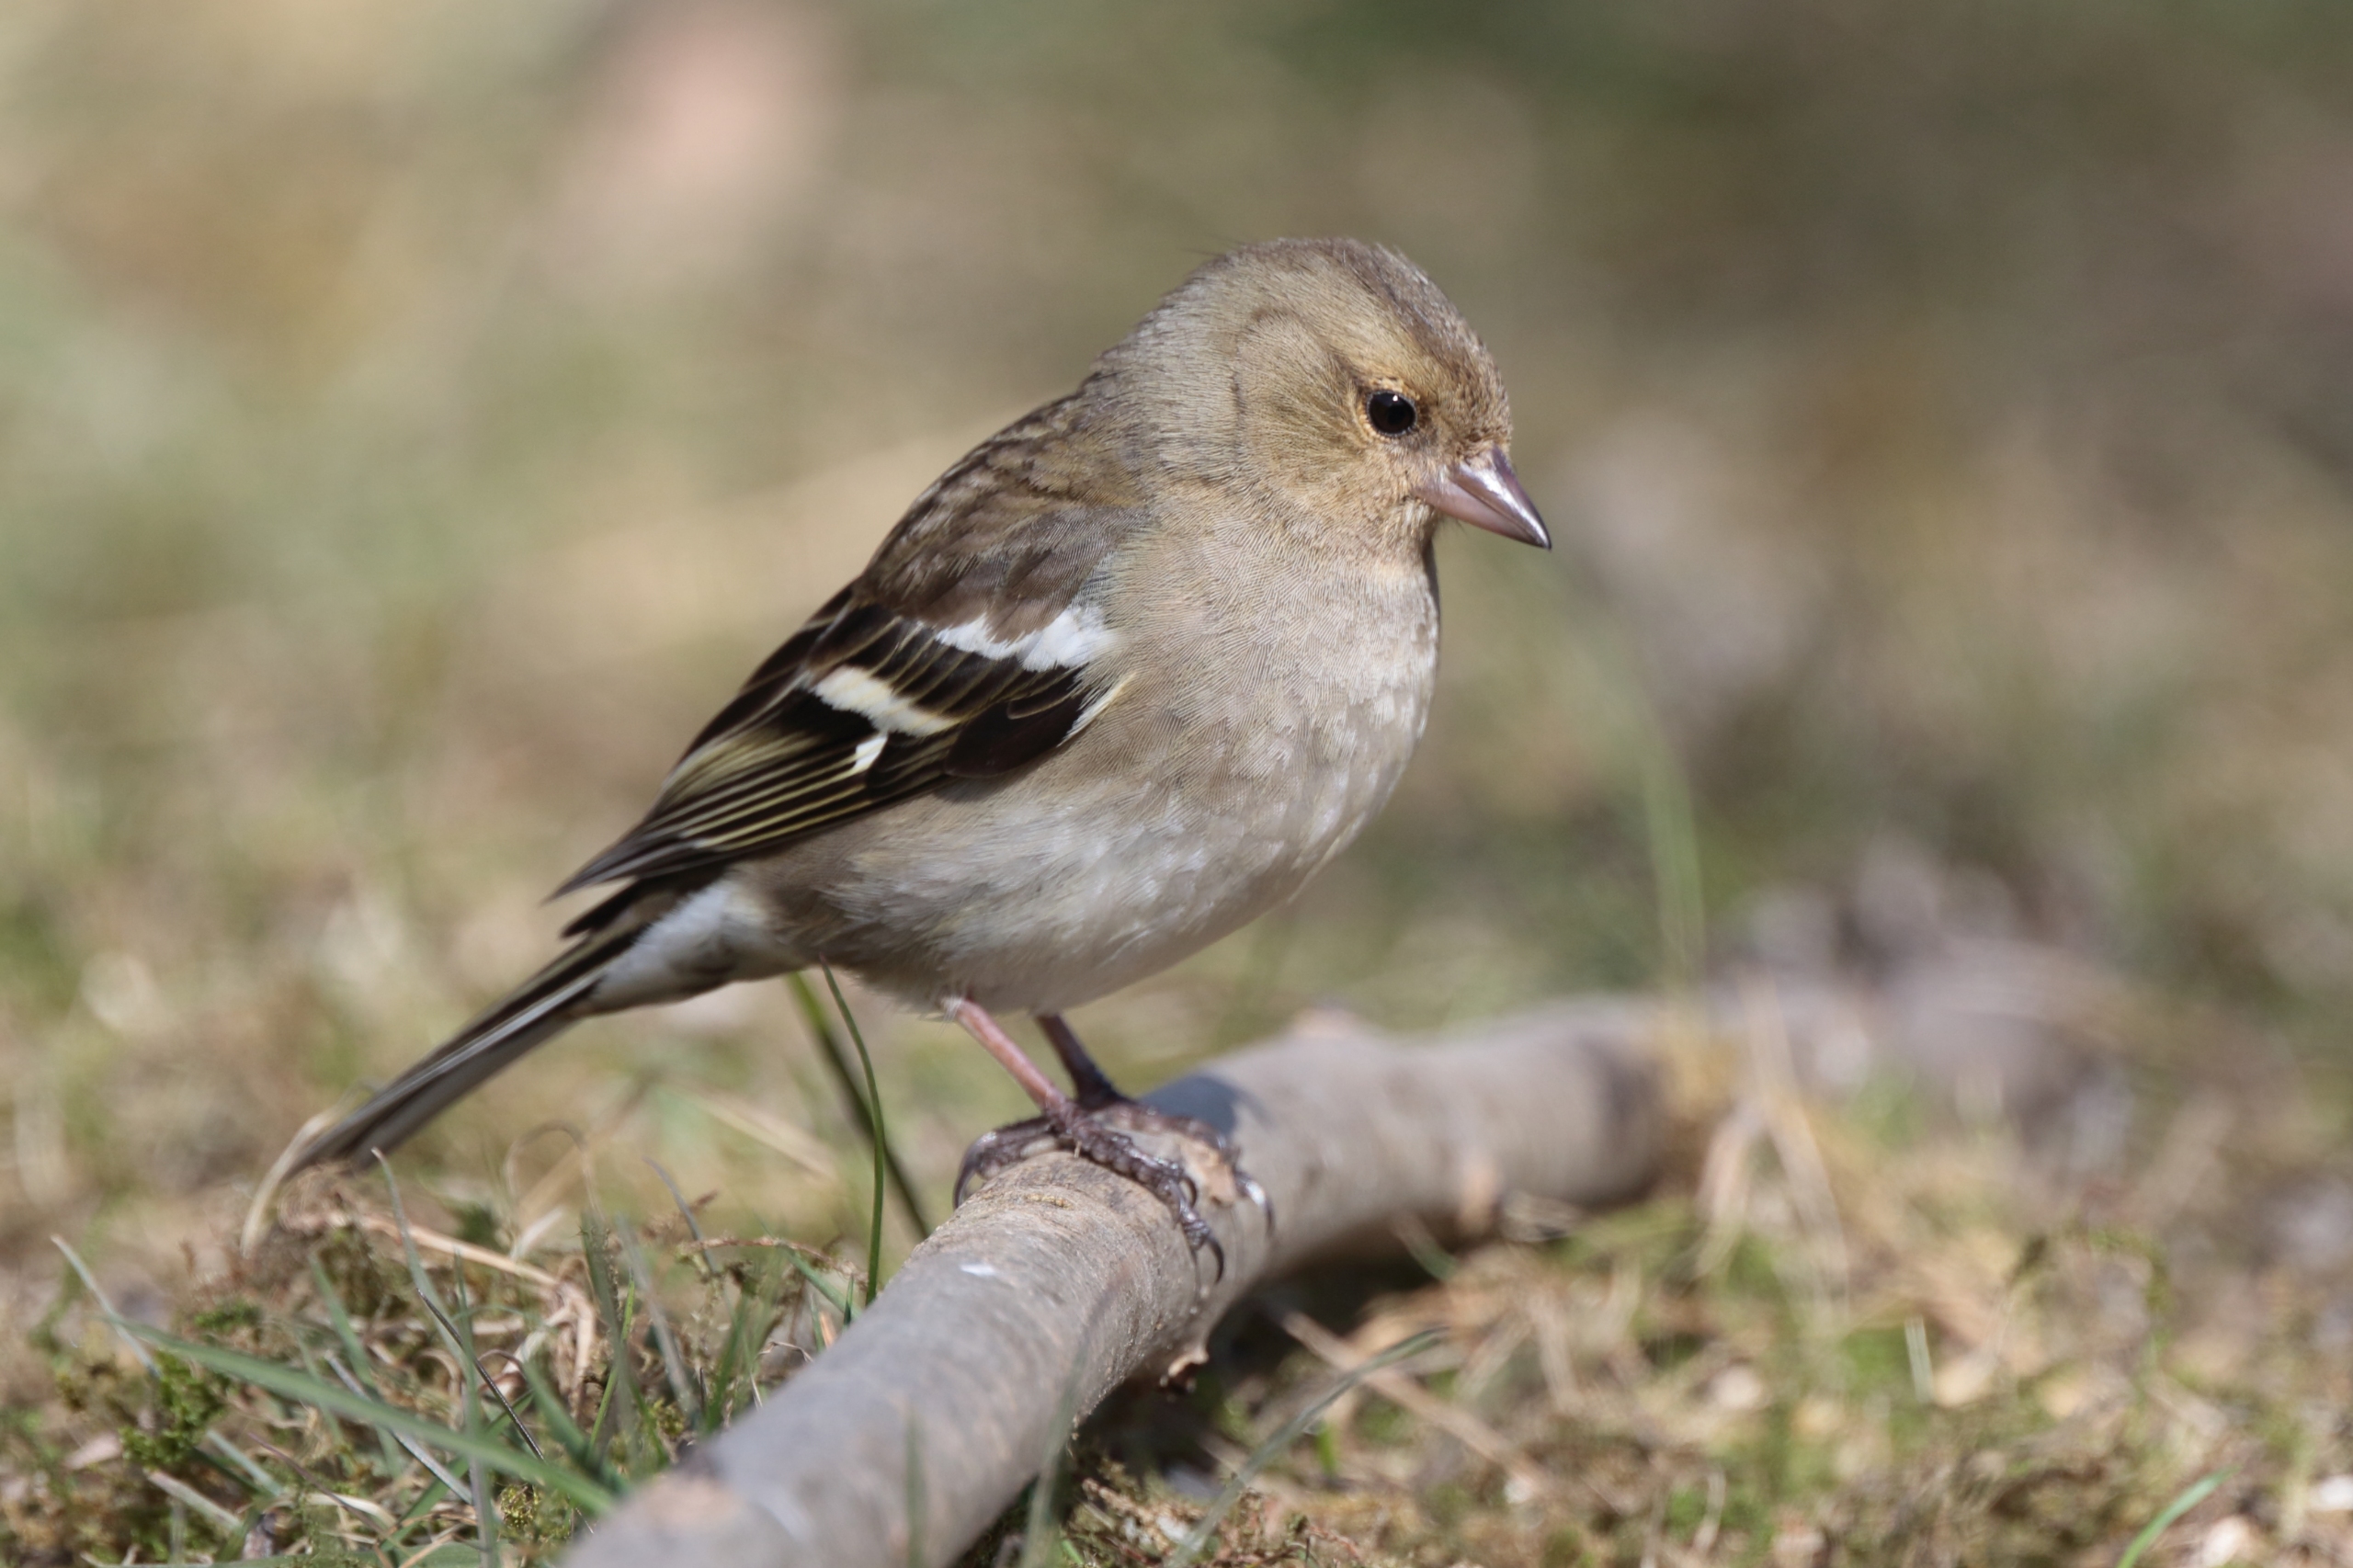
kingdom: Animalia
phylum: Chordata
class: Aves
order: Passeriformes
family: Fringillidae
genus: Fringilla
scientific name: Fringilla coelebs
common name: Bogfinke
